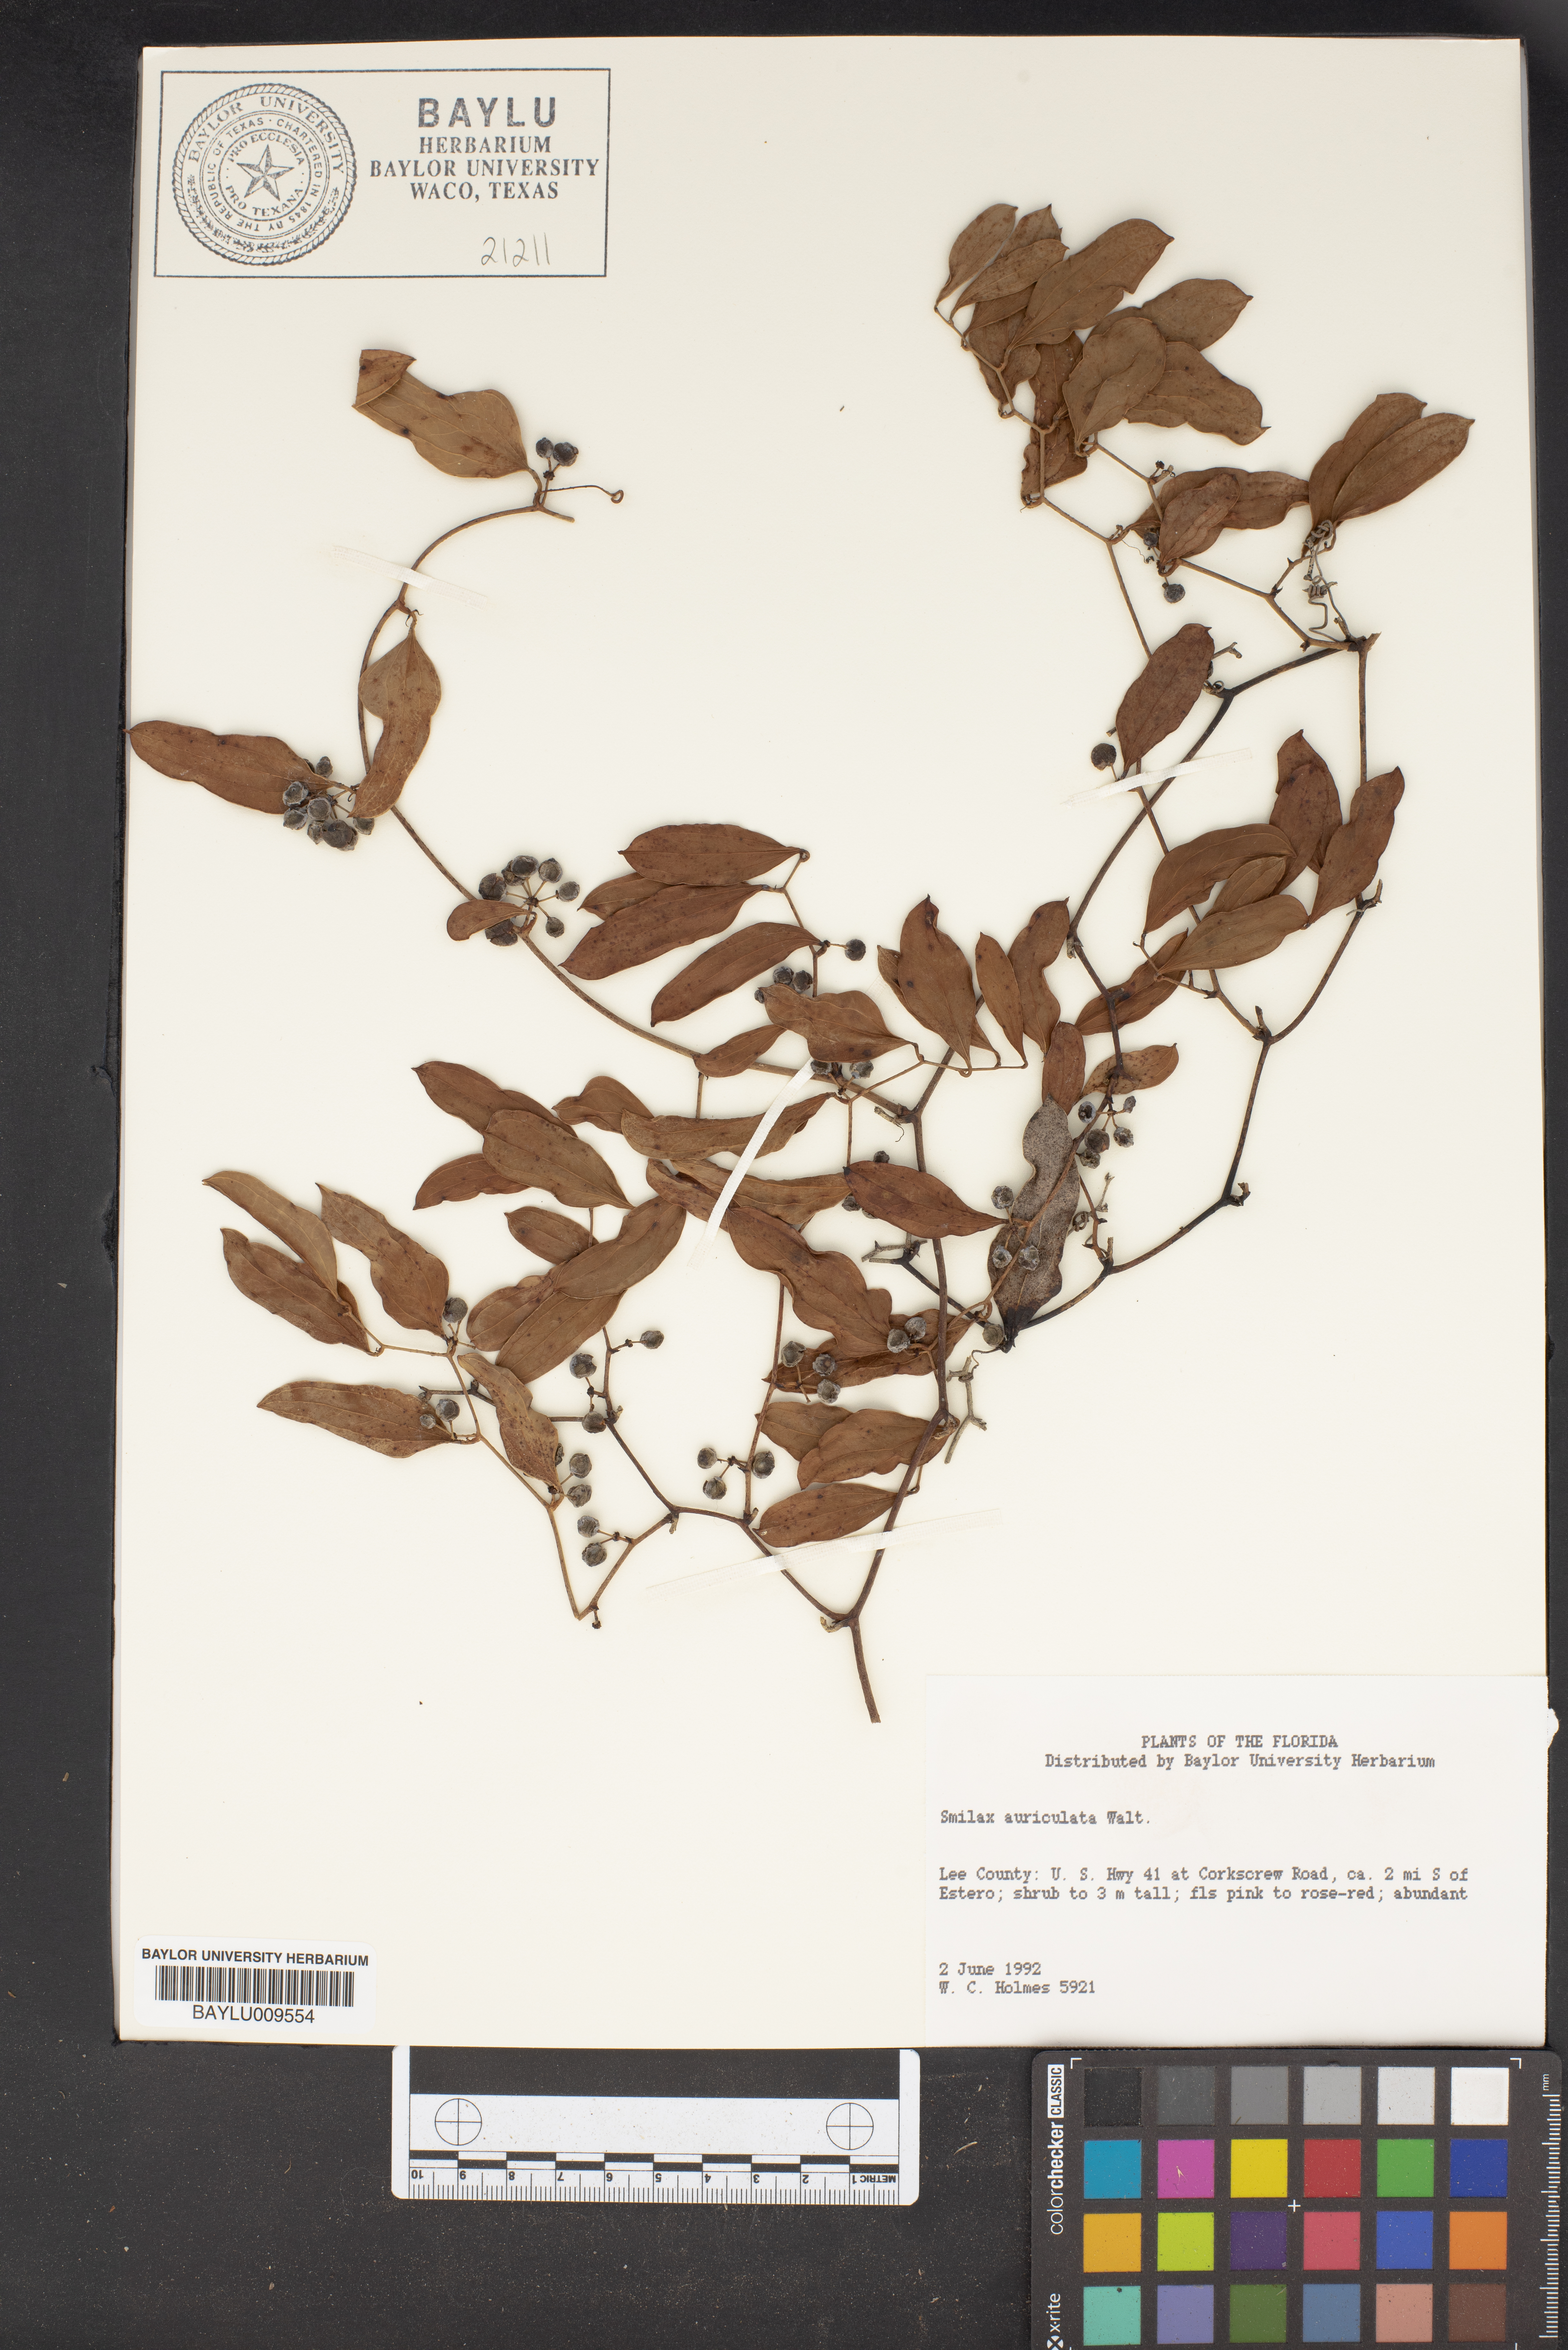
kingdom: Plantae
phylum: Tracheophyta
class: Liliopsida
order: Liliales
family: Smilacaceae
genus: Smilax
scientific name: Smilax auriculata
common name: Wild bamboo
